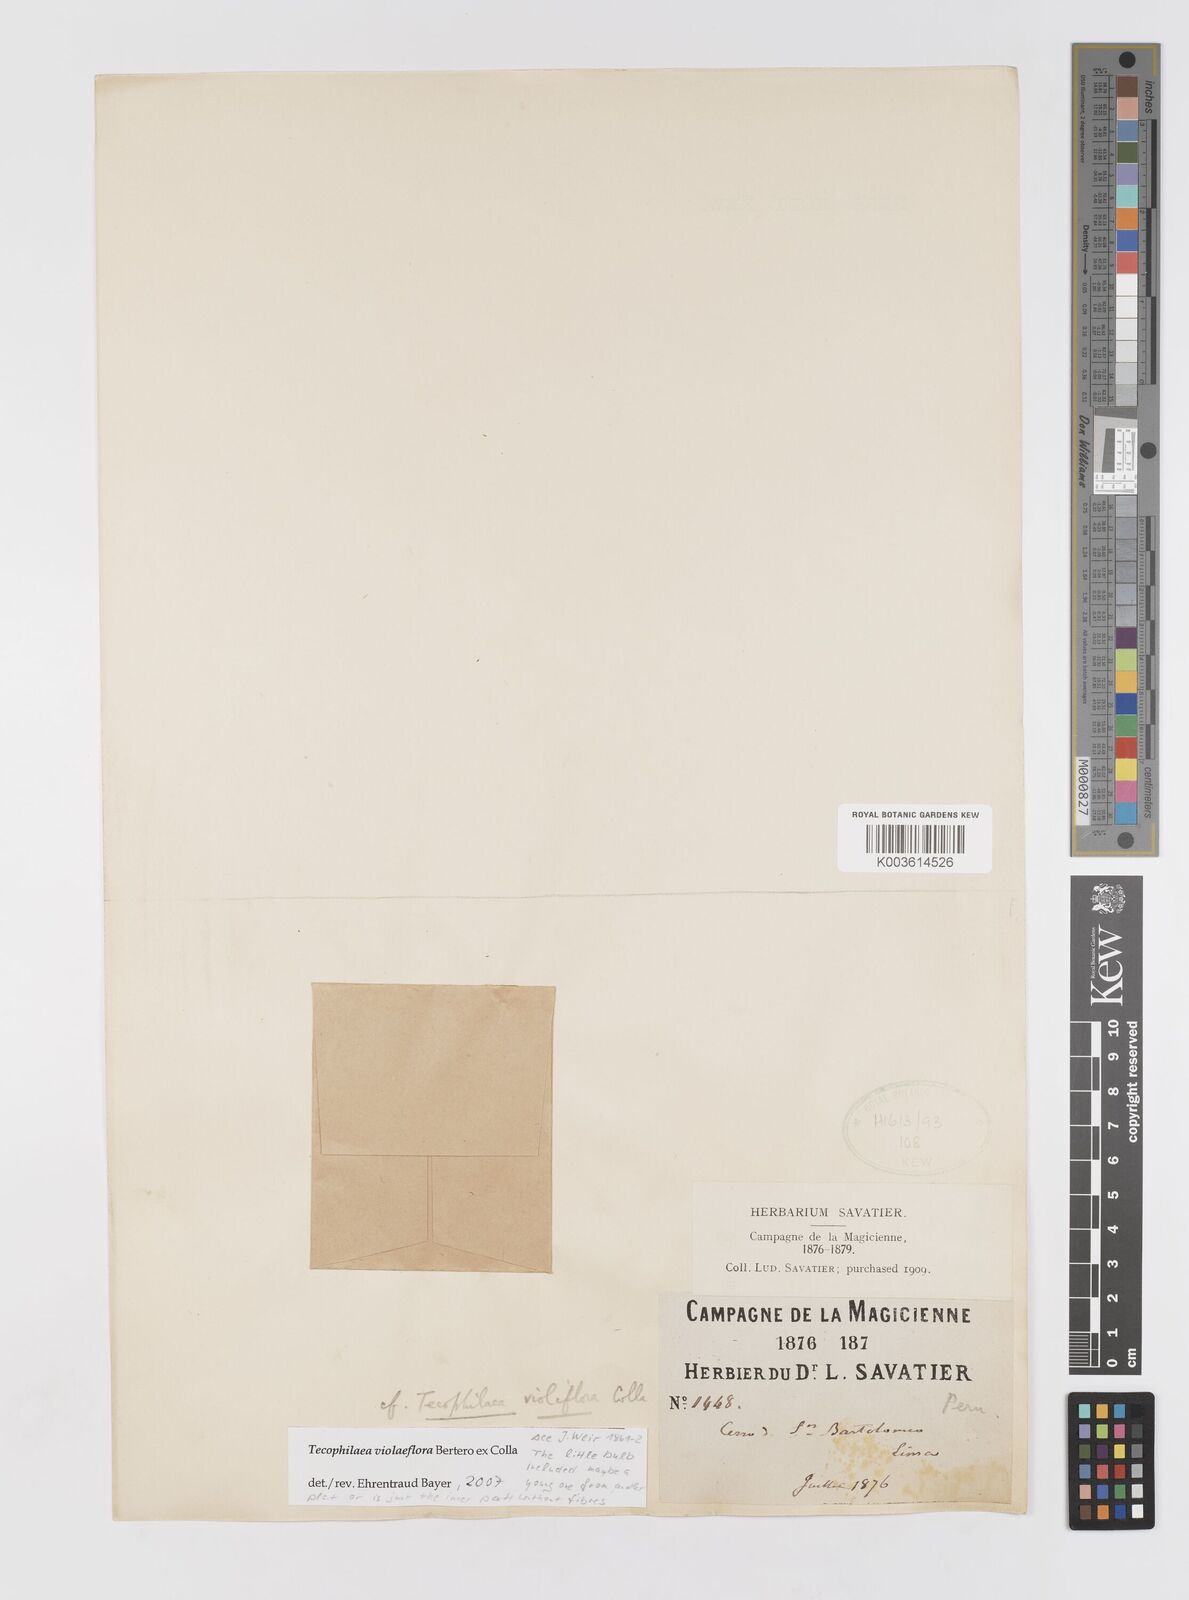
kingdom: Plantae
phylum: Tracheophyta
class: Liliopsida
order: Asparagales
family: Tecophilaeaceae
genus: Tecophilaea
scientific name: Tecophilaea violiflora
